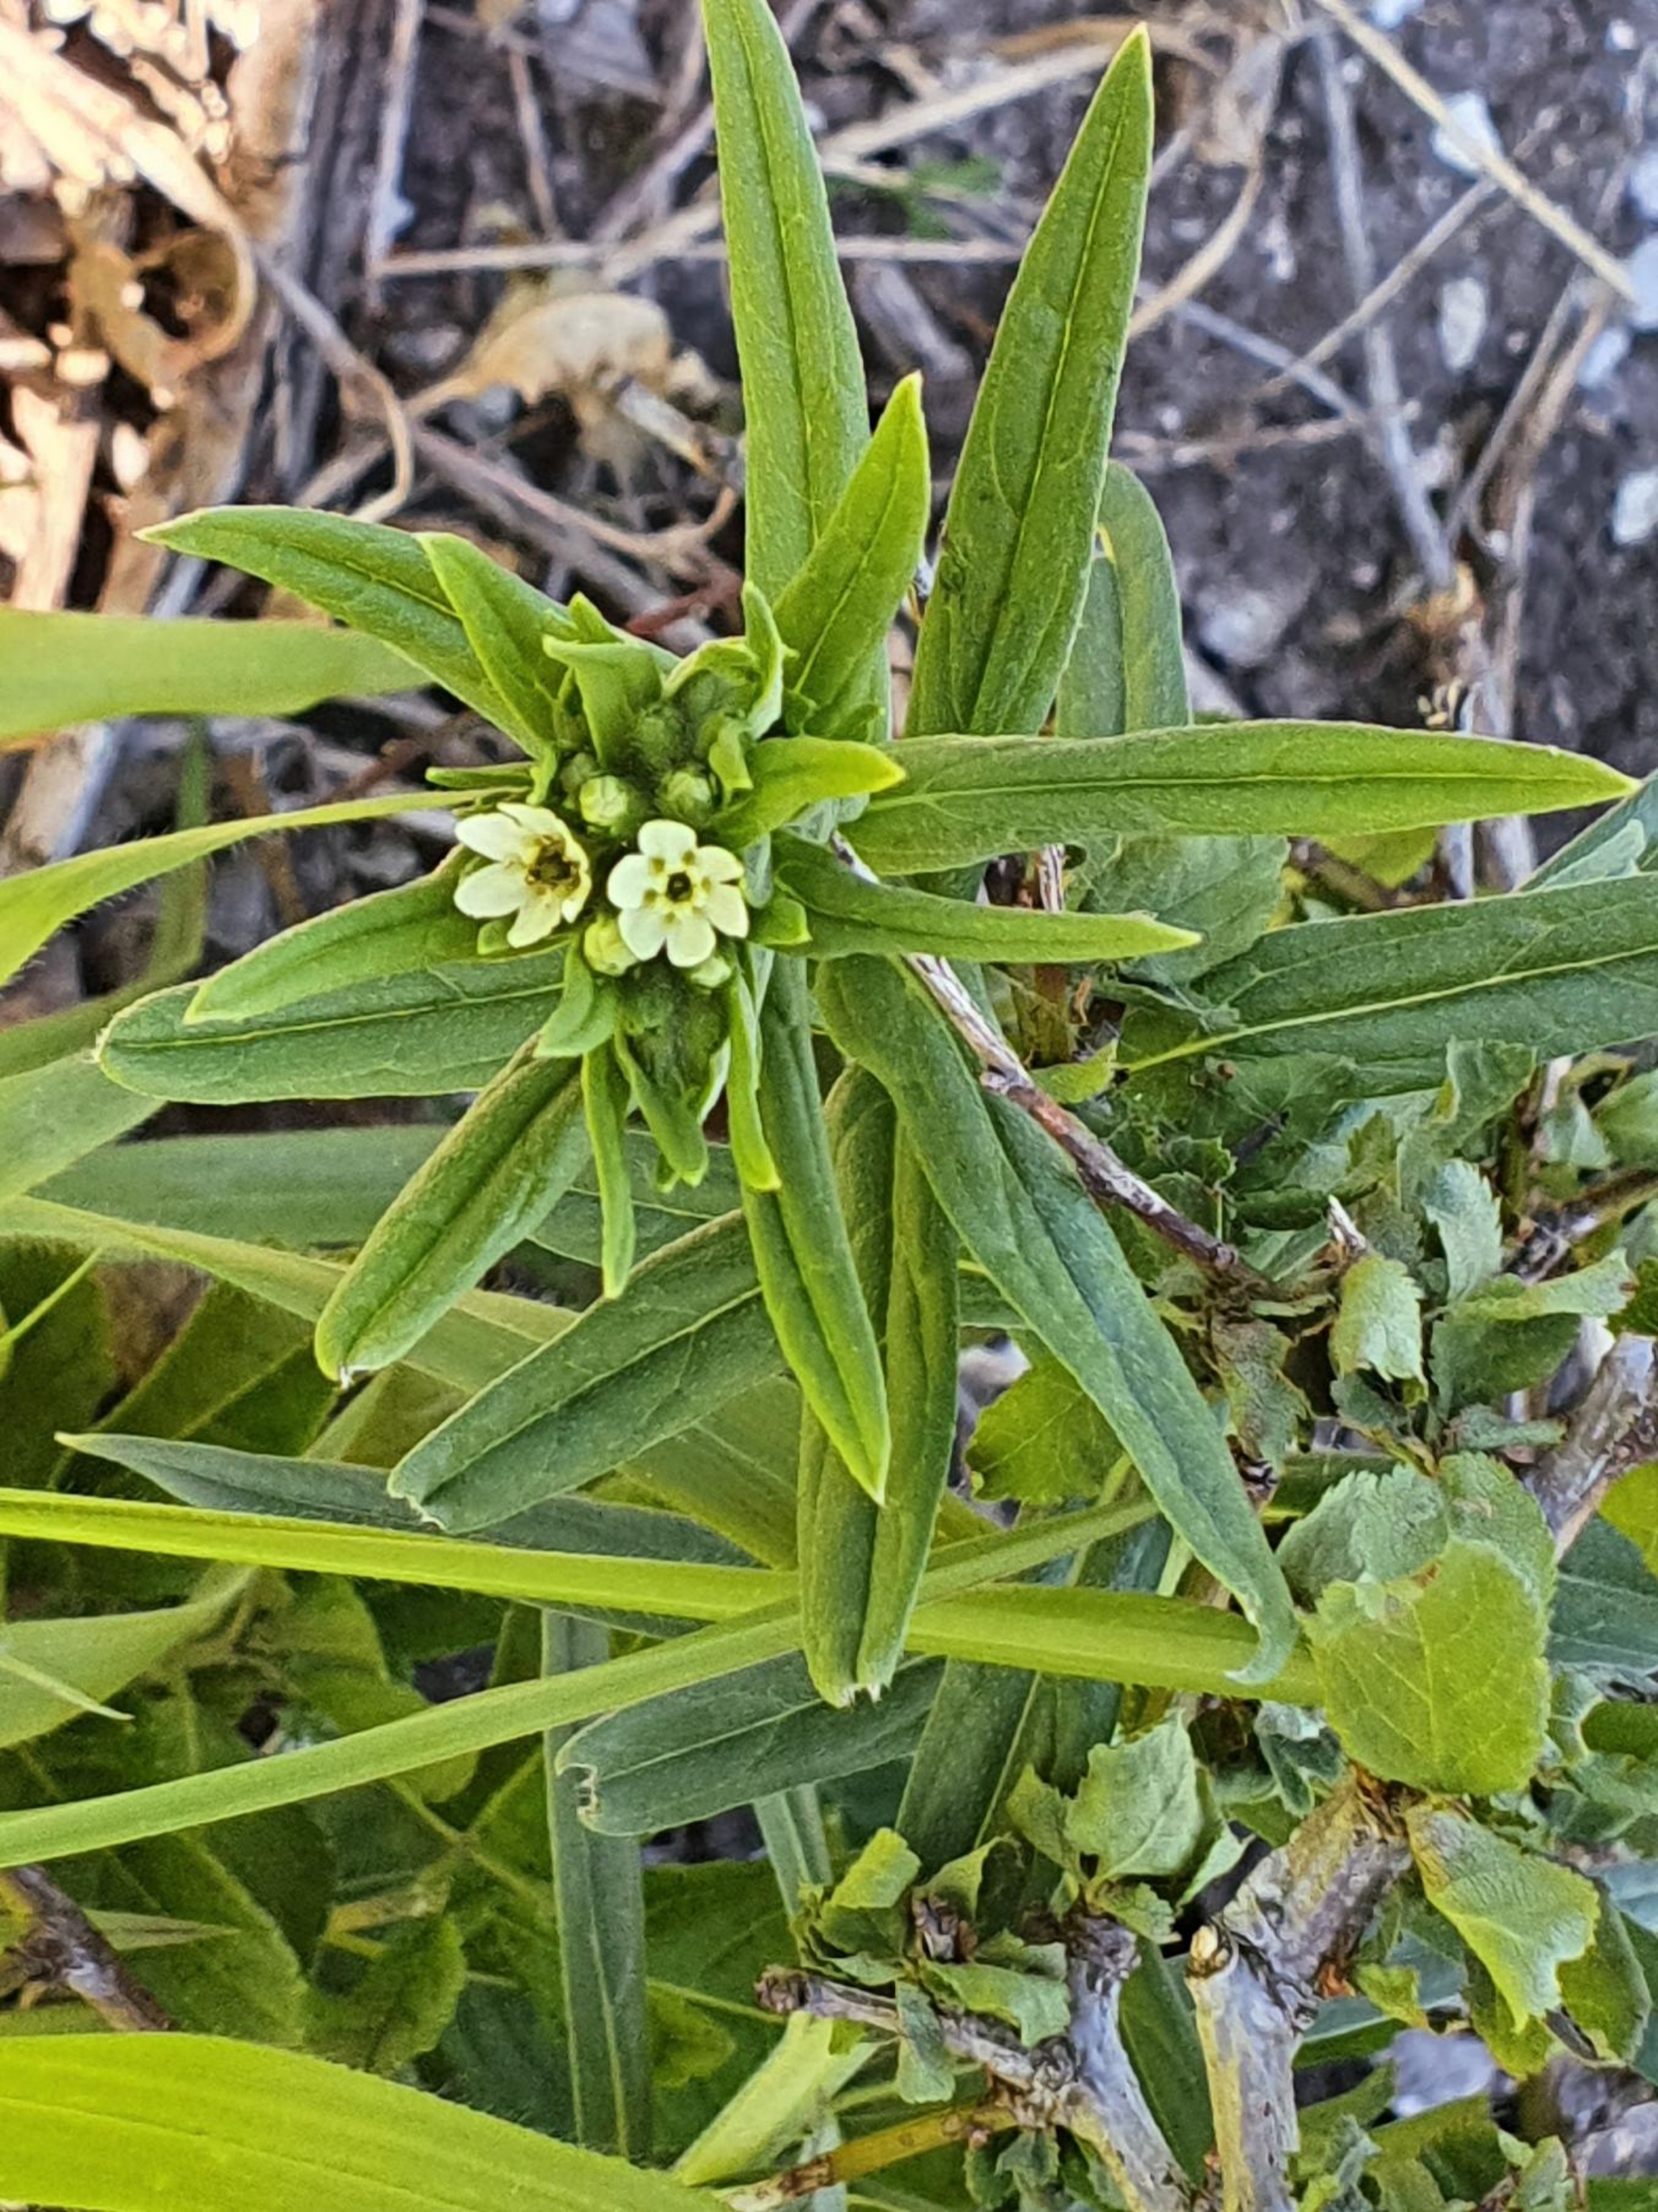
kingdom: Plantae
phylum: Tracheophyta
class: Magnoliopsida
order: Boraginales
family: Boraginaceae
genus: Lithospermum
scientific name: Lithospermum officinale
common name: Læge-stenfrø
